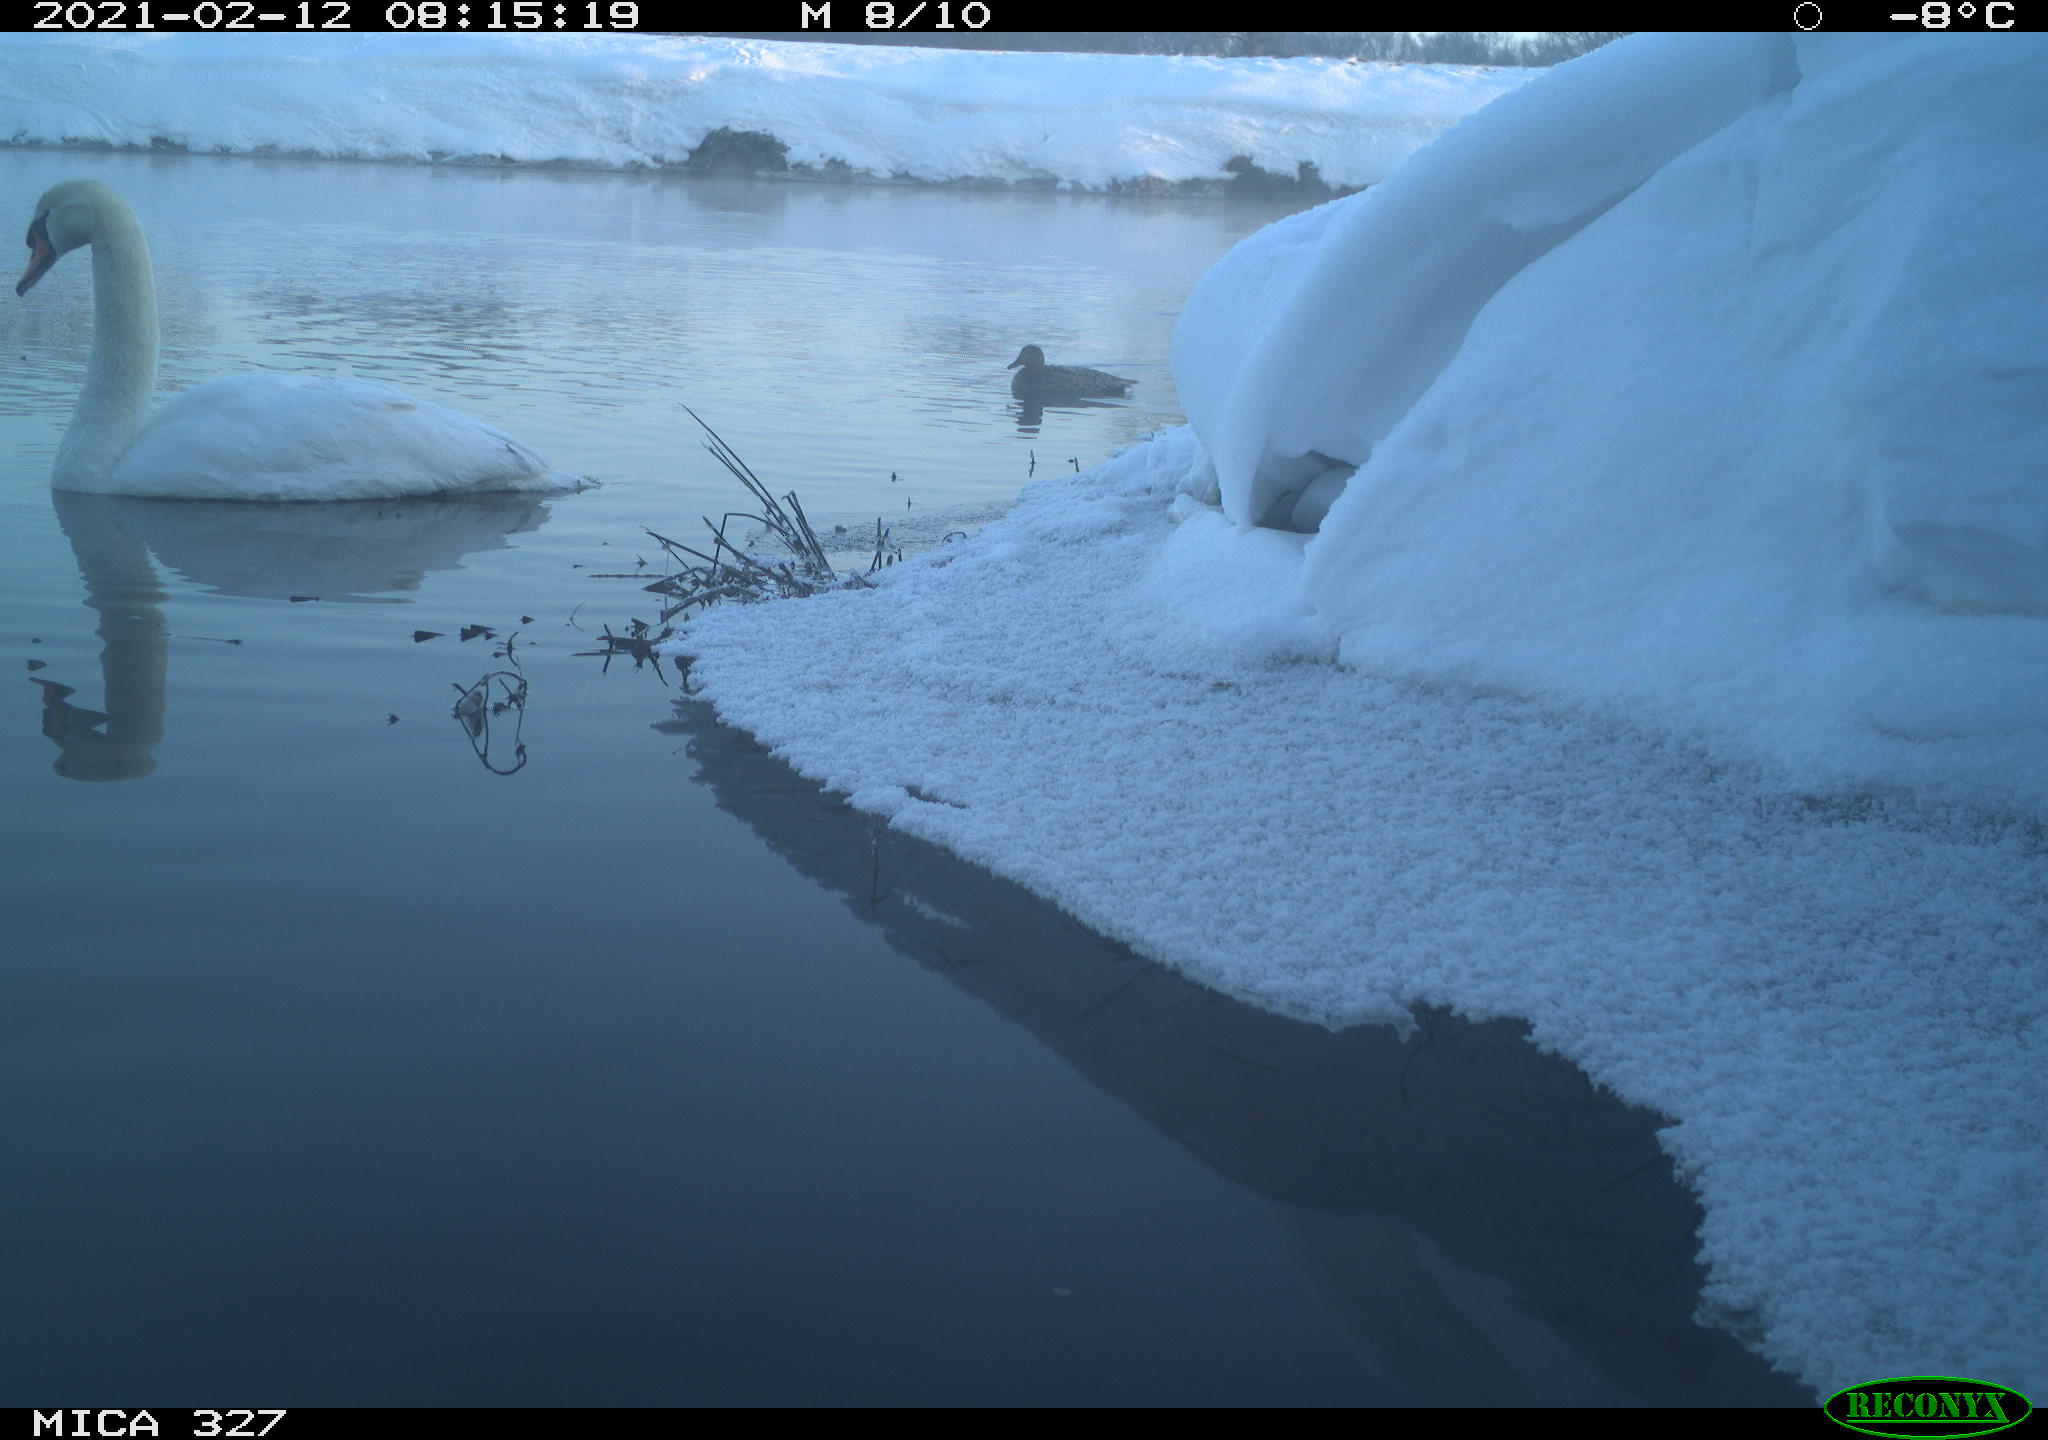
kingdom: Animalia
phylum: Chordata
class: Aves
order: Anseriformes
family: Anatidae
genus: Anas
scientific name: Anas
